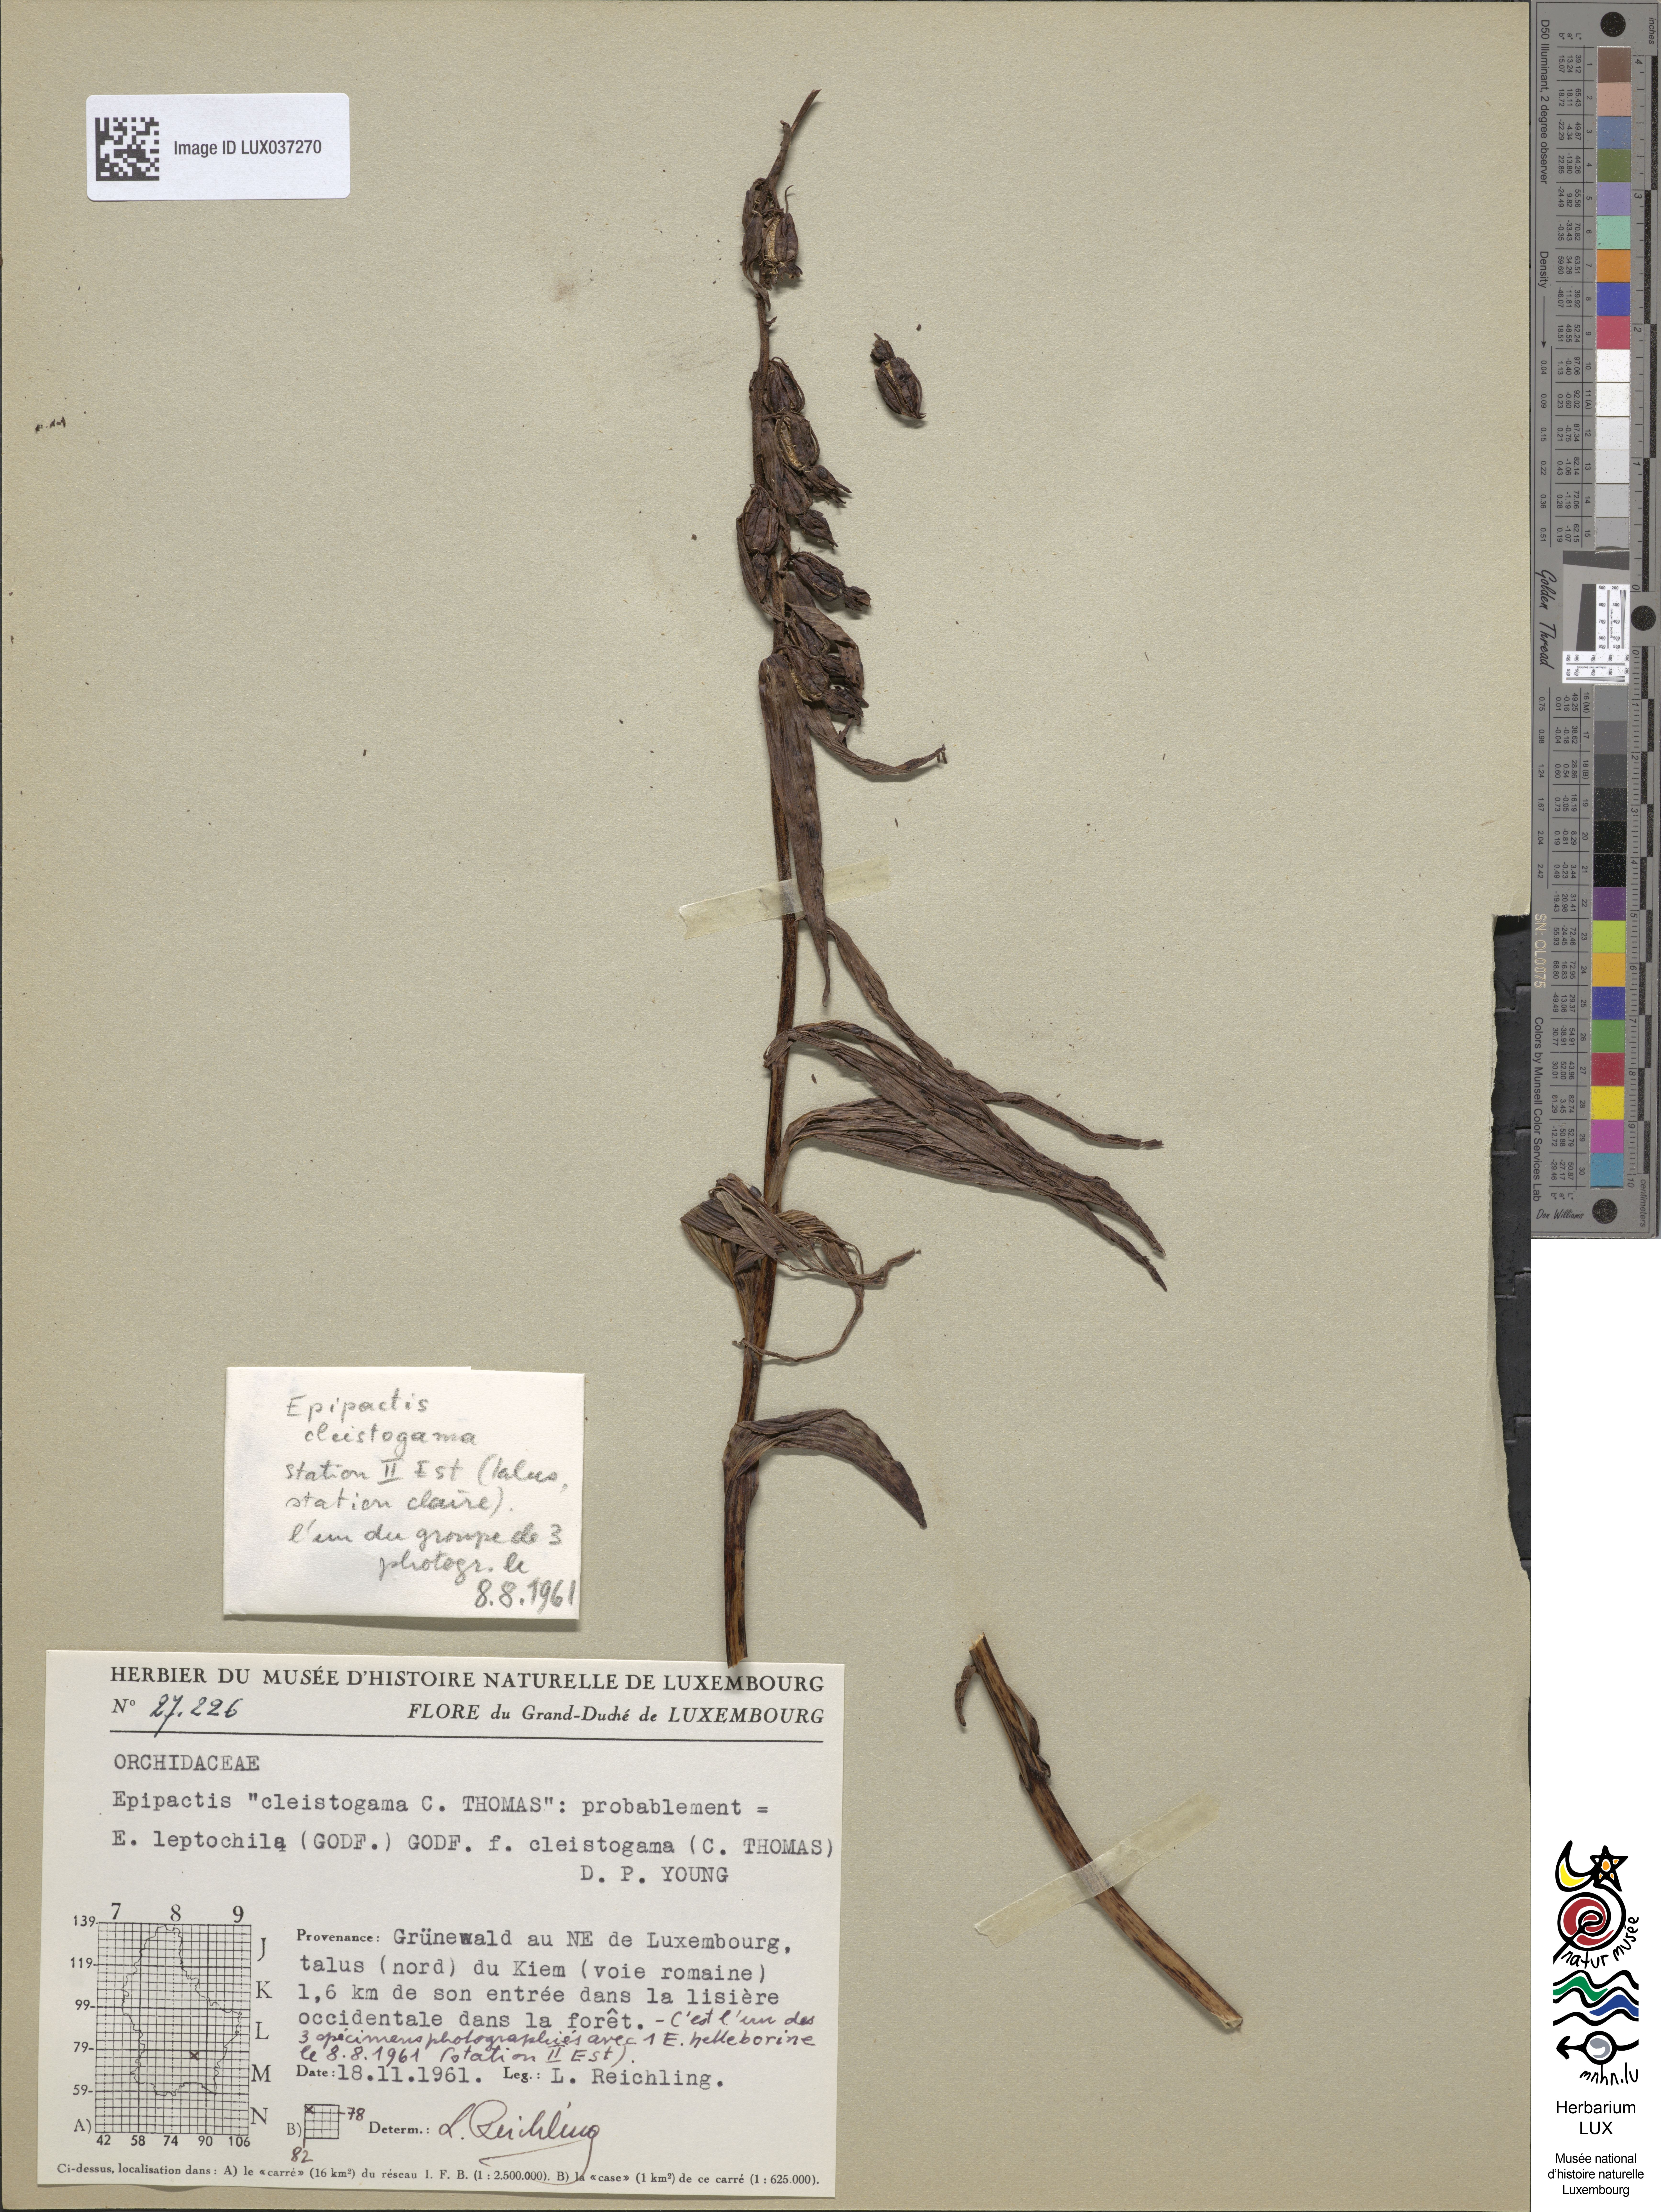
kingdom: Plantae
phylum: Tracheophyta
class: Liliopsida
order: Asparagales
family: Orchidaceae
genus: Epipactis
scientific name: Epipactis leptochila
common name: Narrow-lipped helleborine
